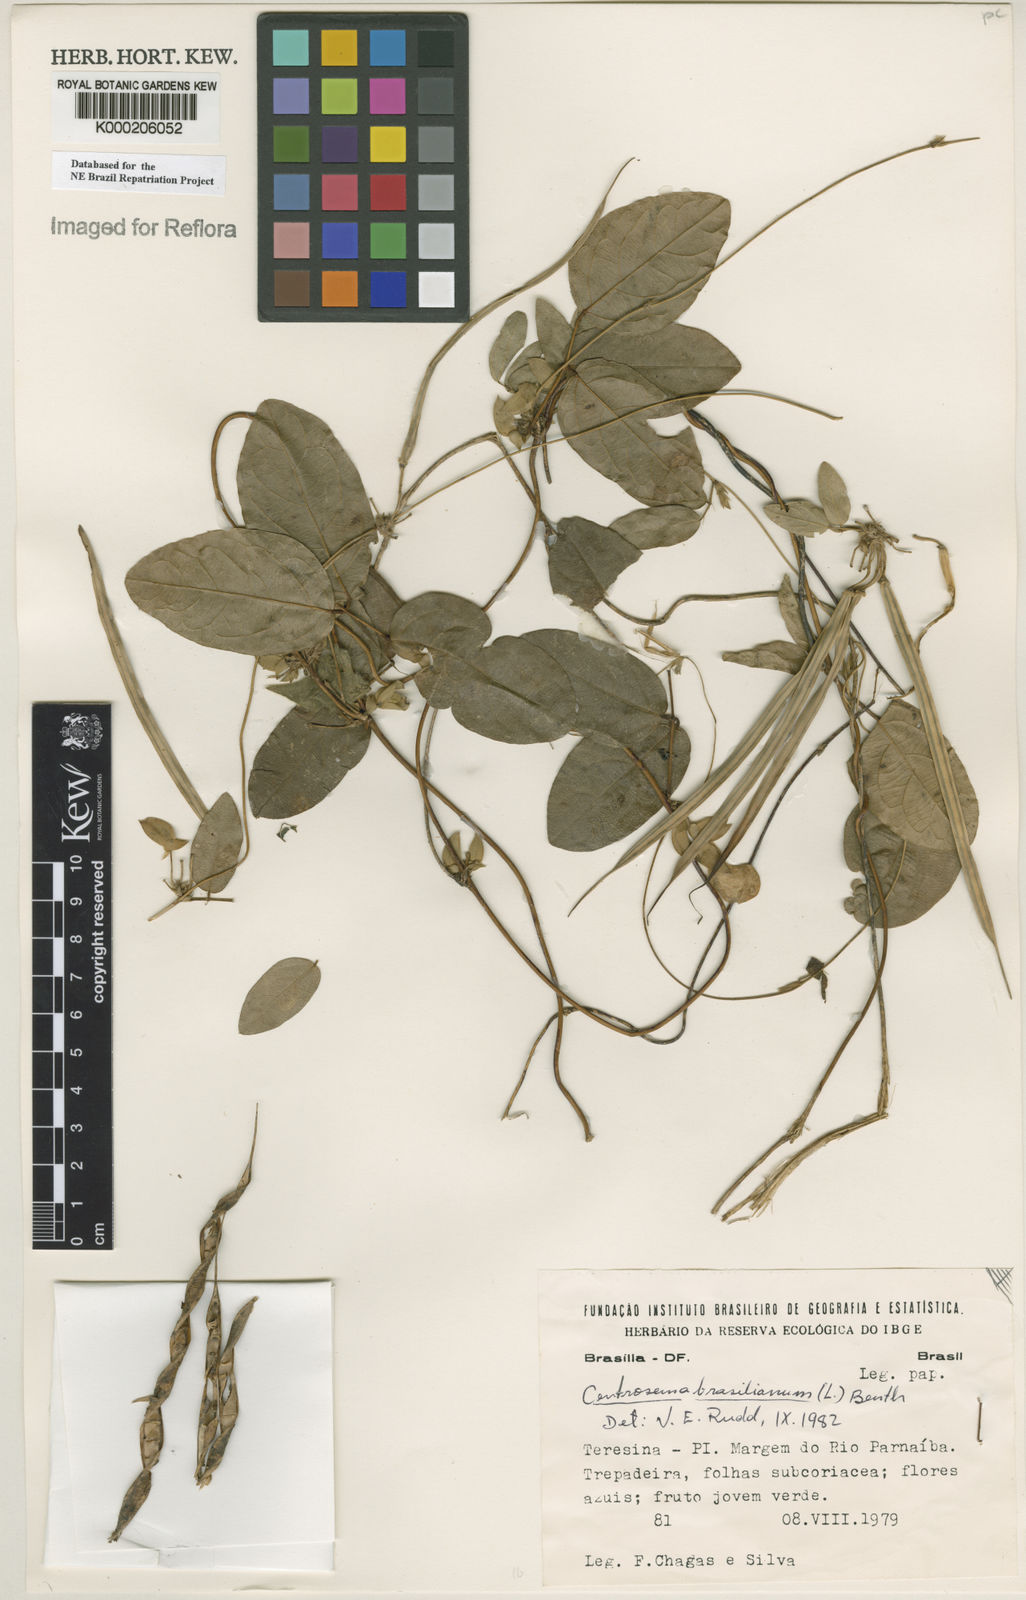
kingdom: Plantae
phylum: Tracheophyta
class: Magnoliopsida
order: Fabales
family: Fabaceae
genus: Centrosema
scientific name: Centrosema brasilianum
